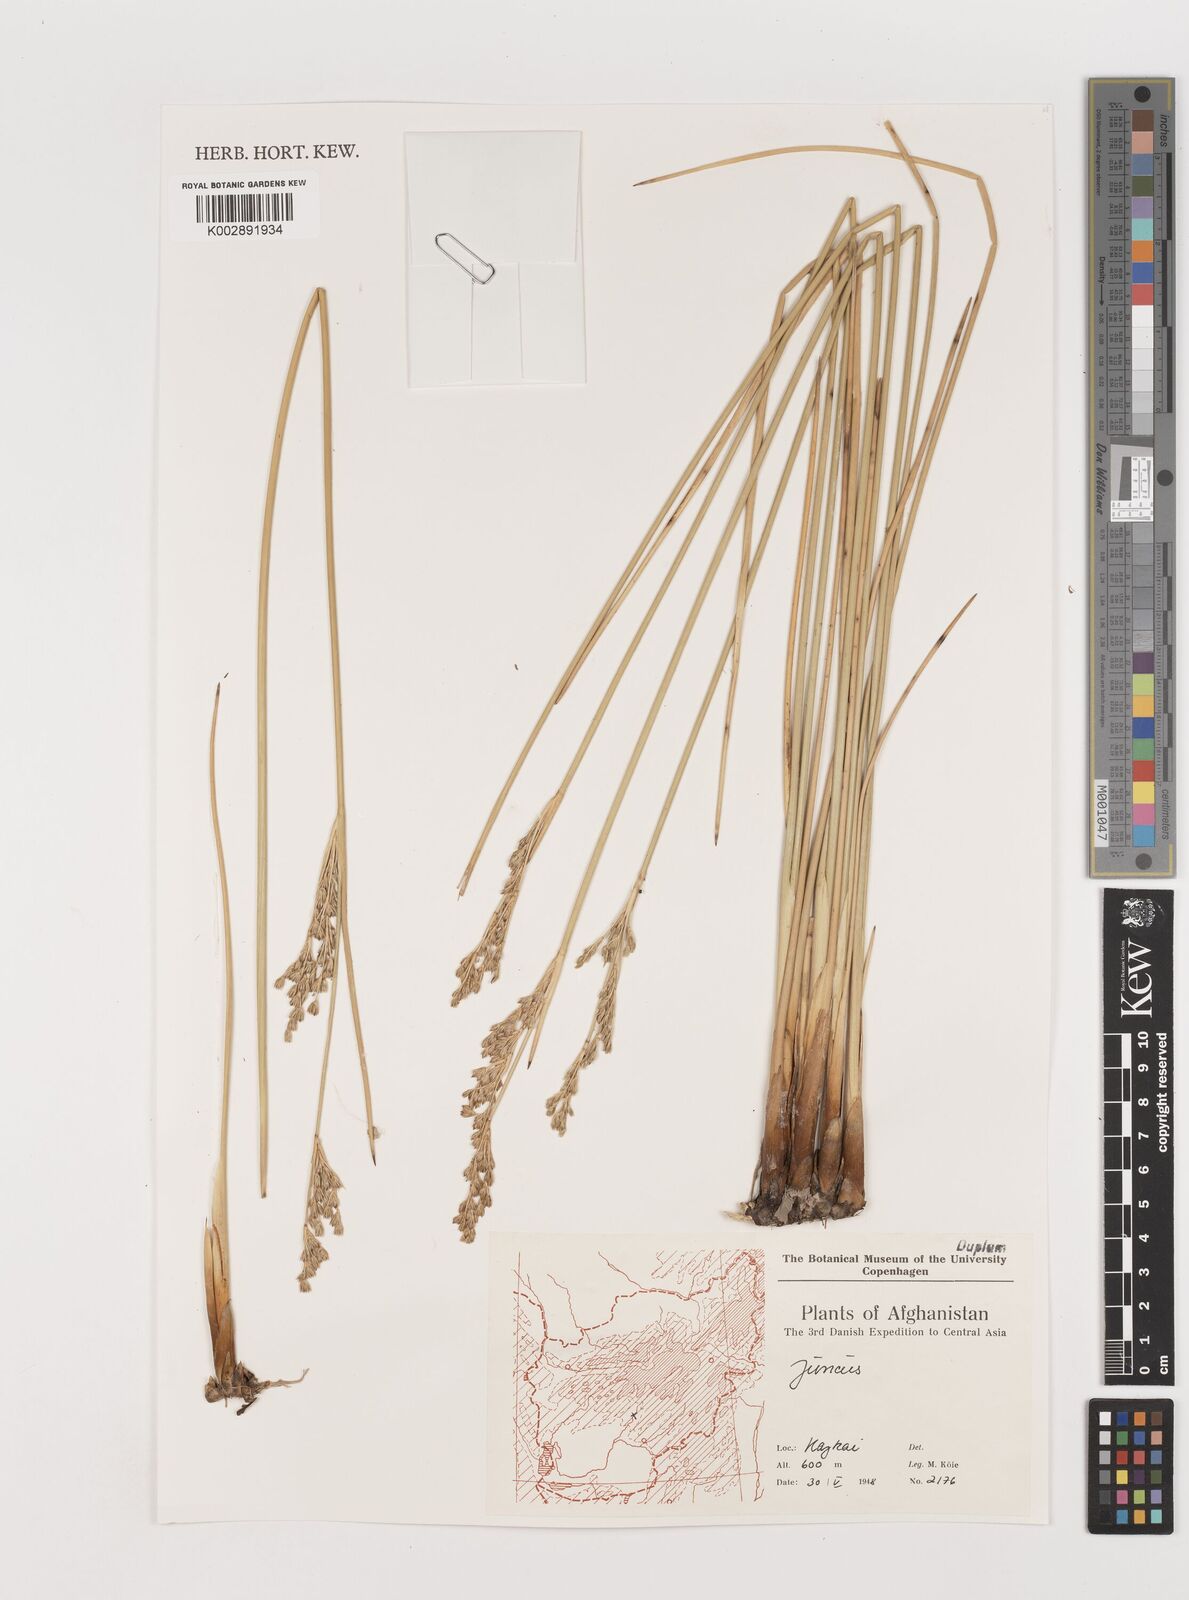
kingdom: Plantae
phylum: Tracheophyta
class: Liliopsida
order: Poales
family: Juncaceae
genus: Juncus
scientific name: Juncus
